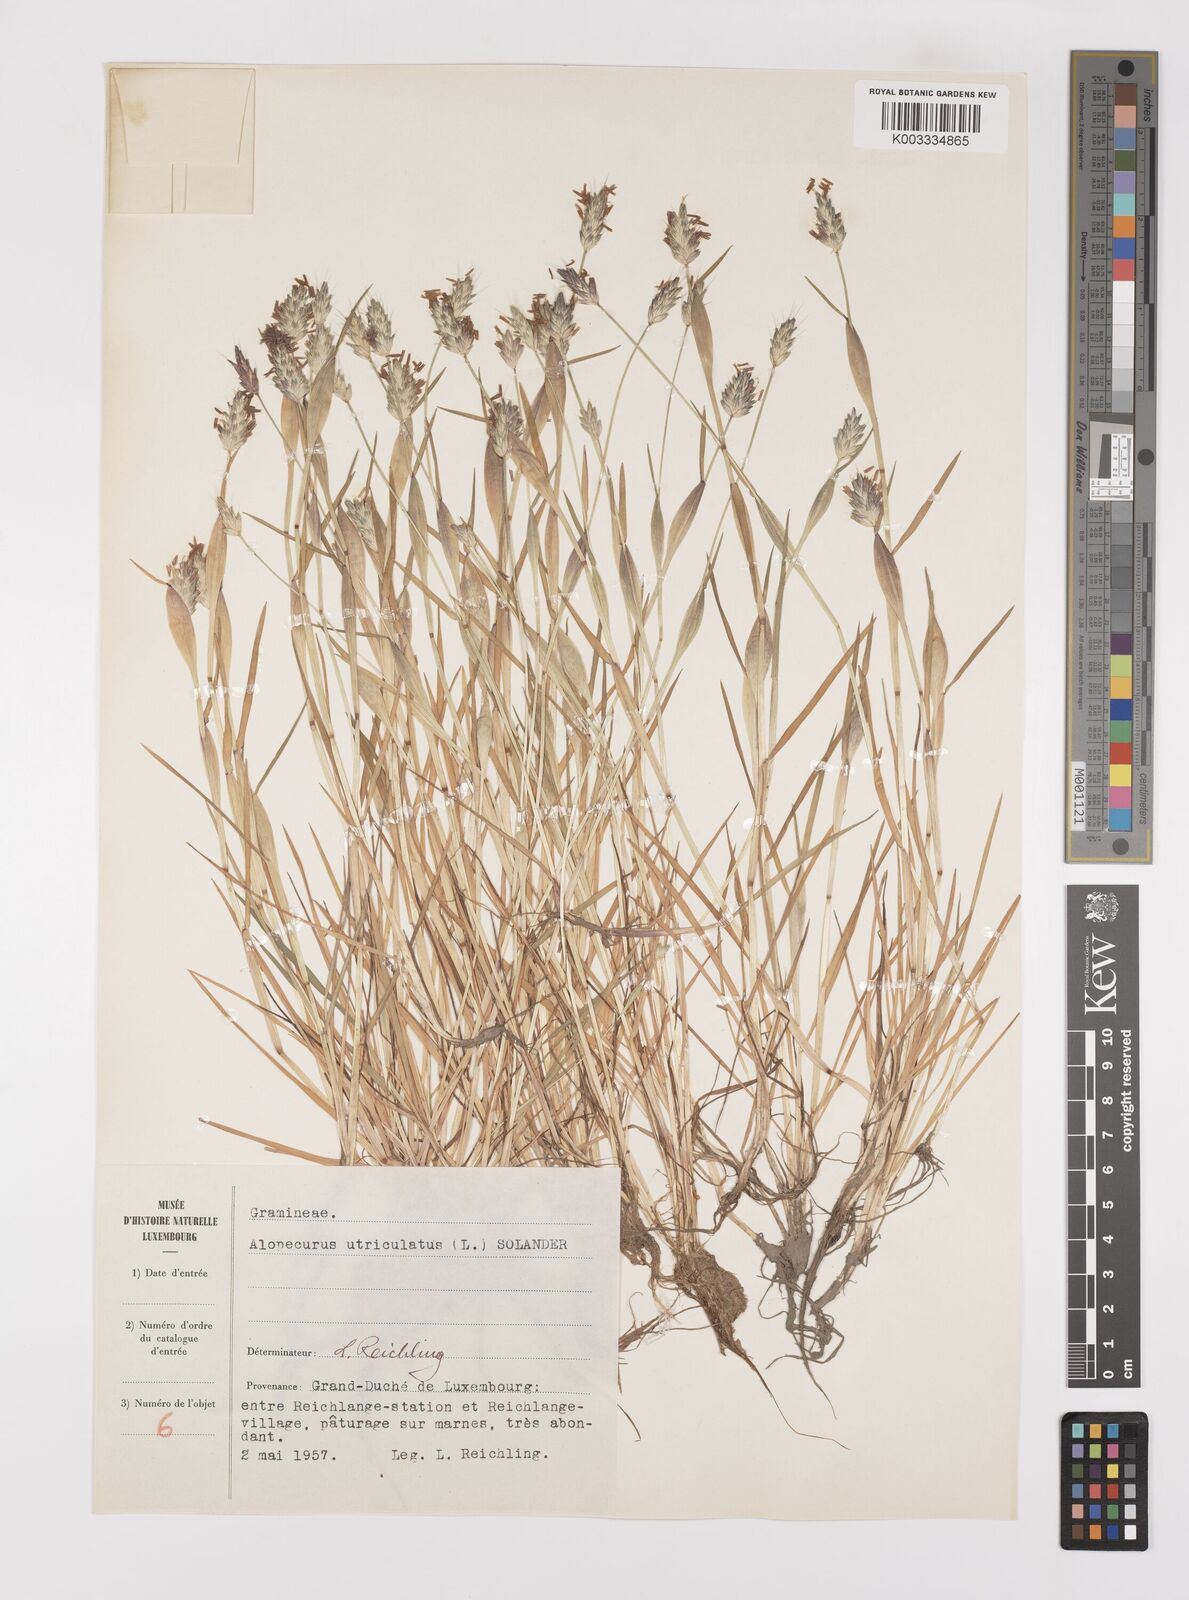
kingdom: Plantae
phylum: Tracheophyta
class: Liliopsida
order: Poales
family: Poaceae
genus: Alopecurus
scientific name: Alopecurus rendlei
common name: Rendle's meadow foxtail
